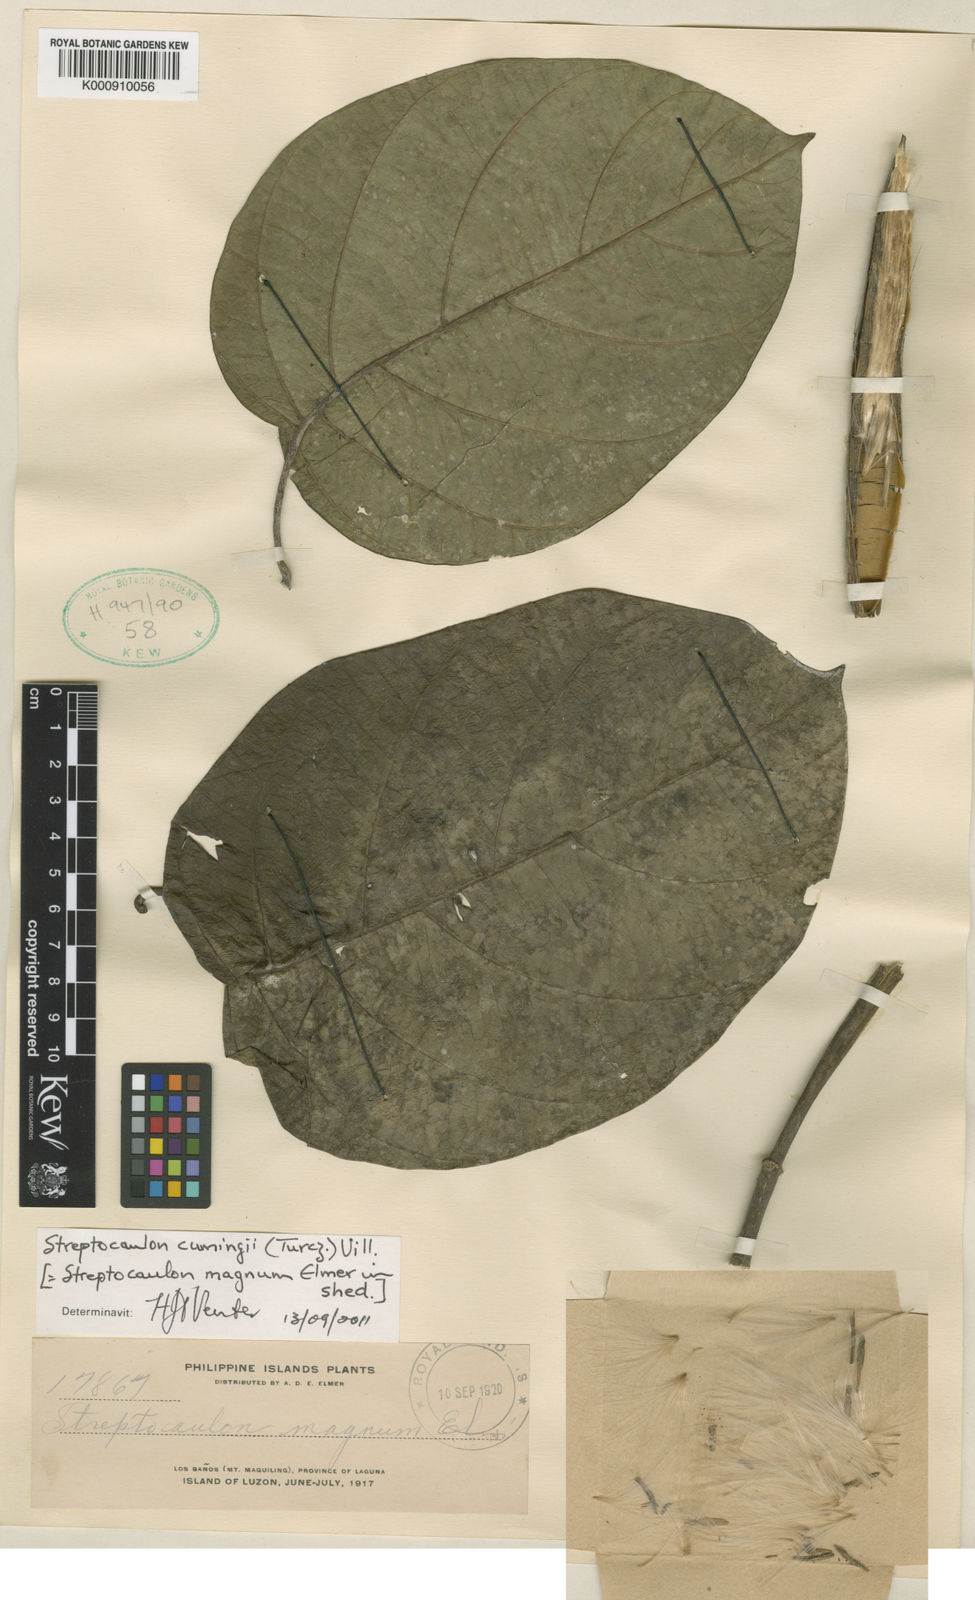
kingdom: Plantae
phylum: Tracheophyta
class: Magnoliopsida
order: Gentianales
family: Apocynaceae
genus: Streptocaulon
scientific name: Streptocaulon
